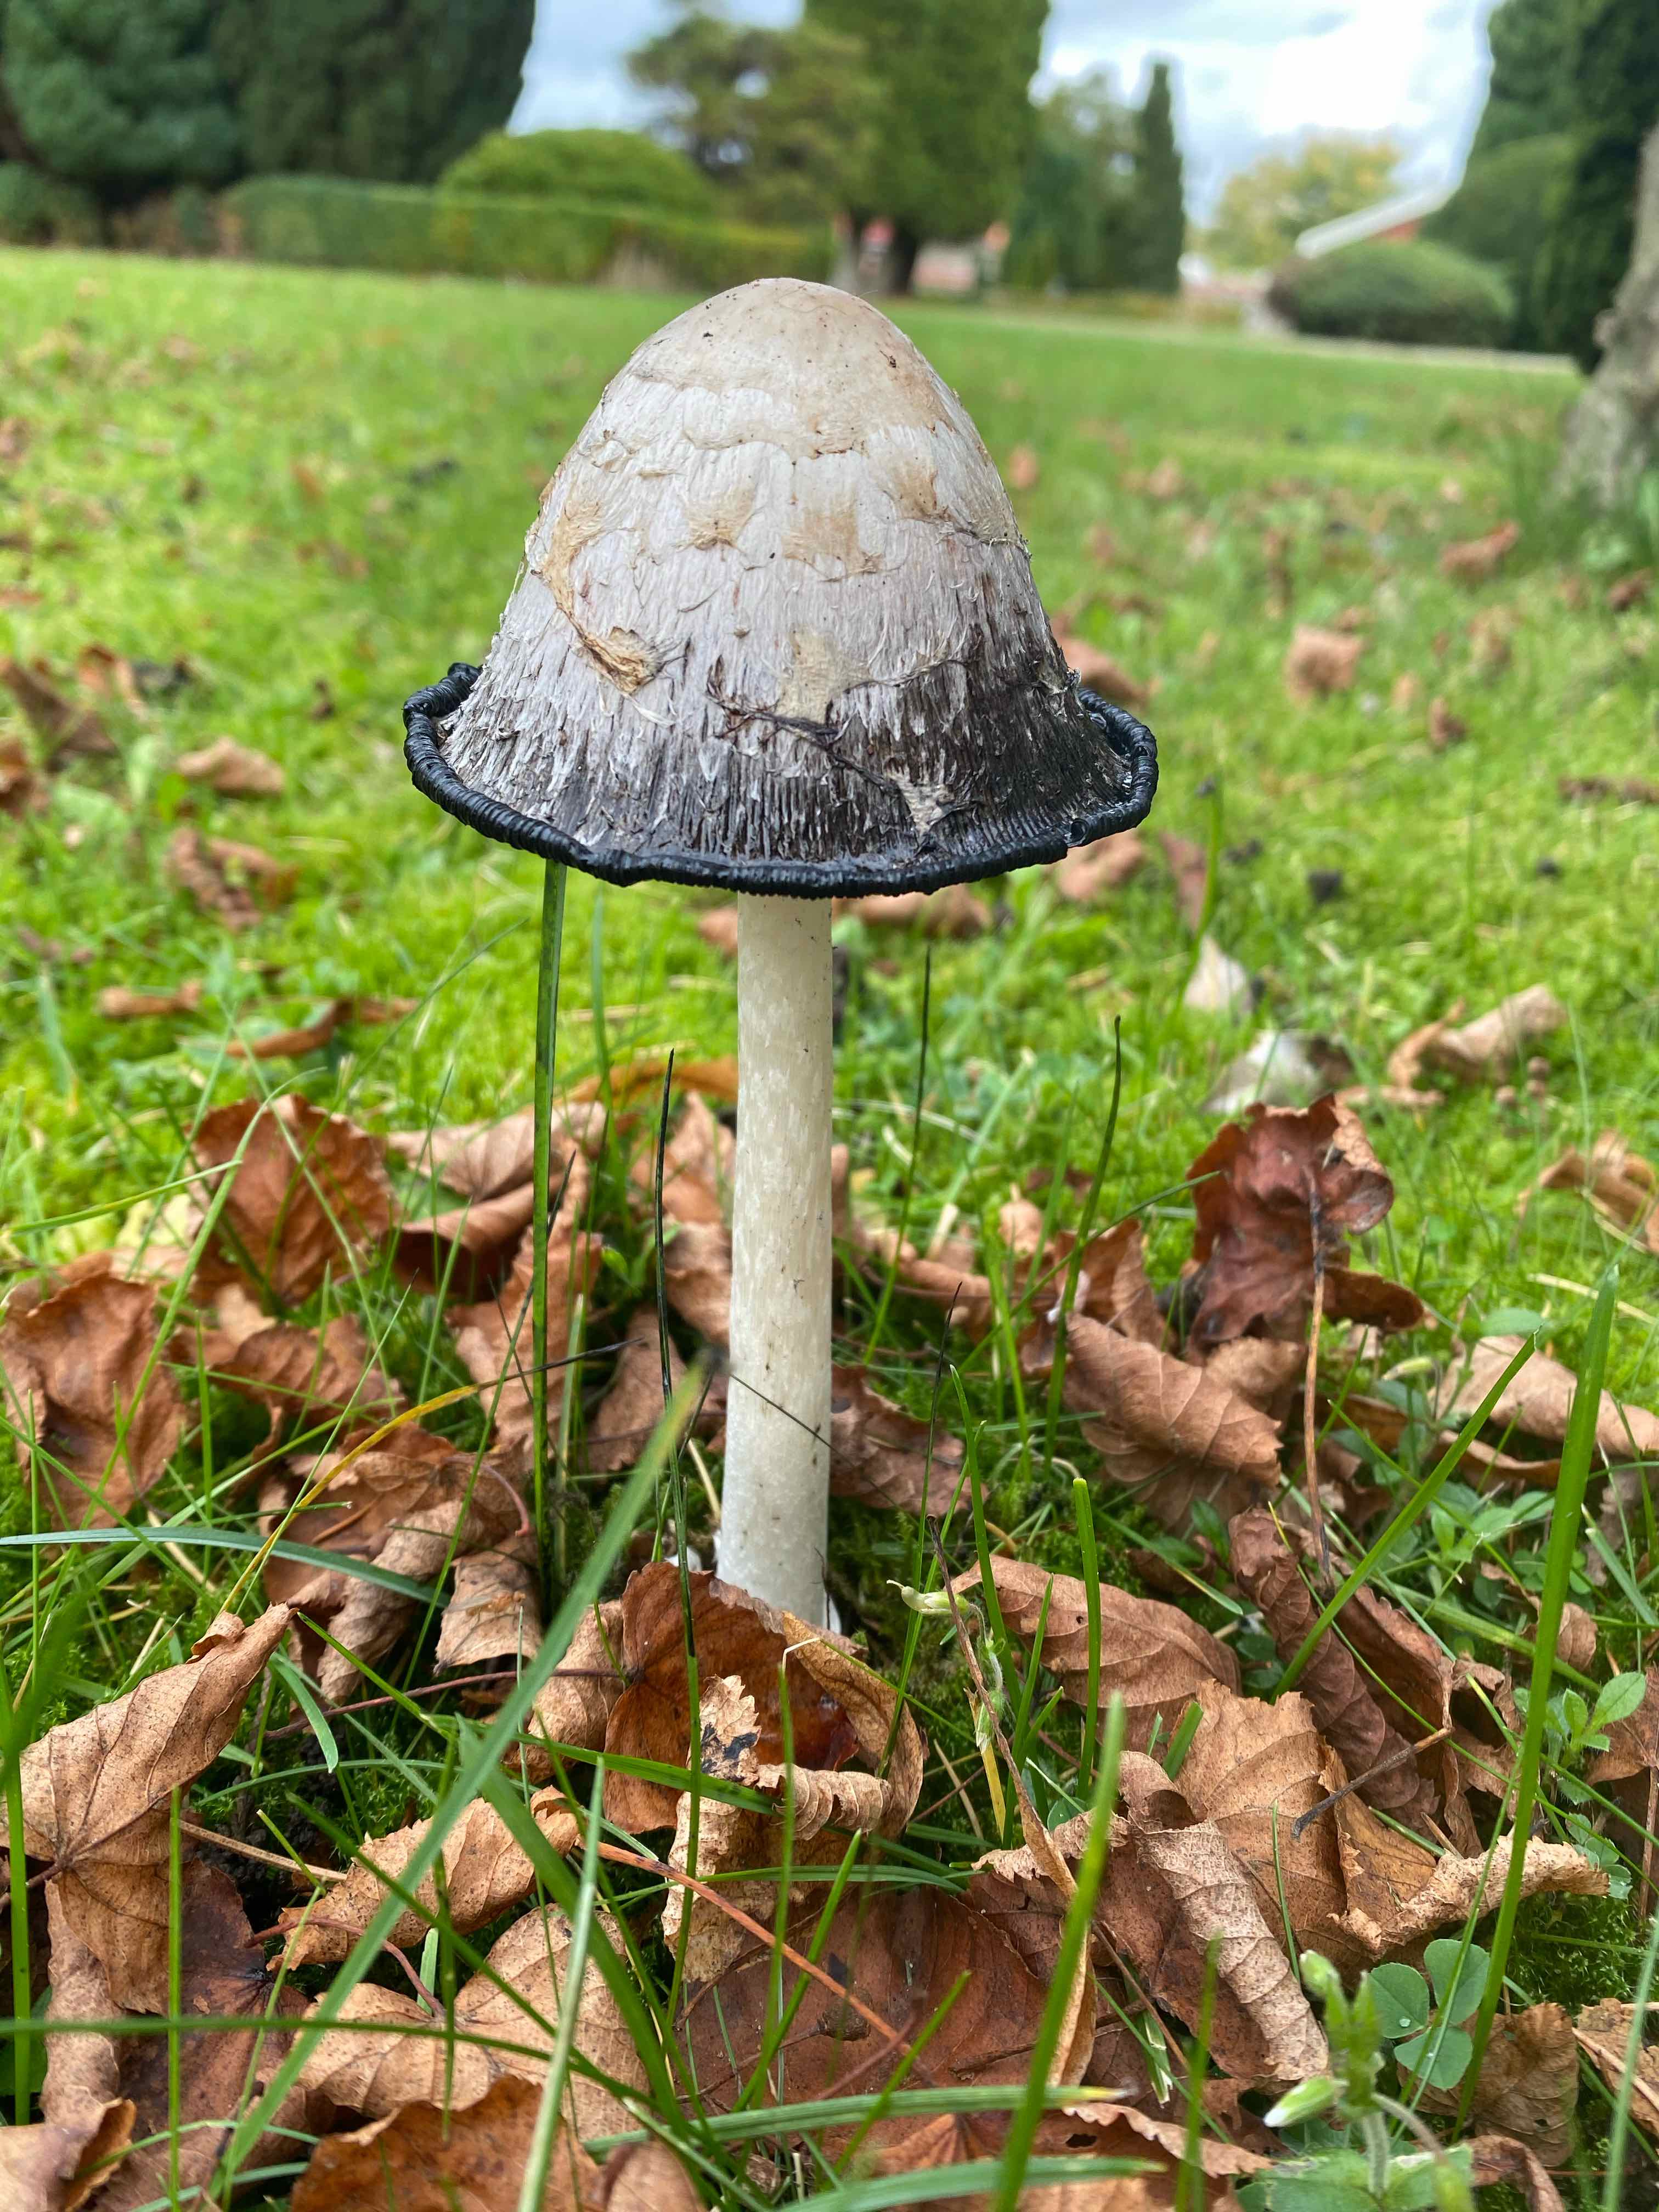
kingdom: Fungi
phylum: Basidiomycota
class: Agaricomycetes
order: Agaricales
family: Agaricaceae
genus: Coprinus
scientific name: Coprinus comatus
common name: stor parykhat
